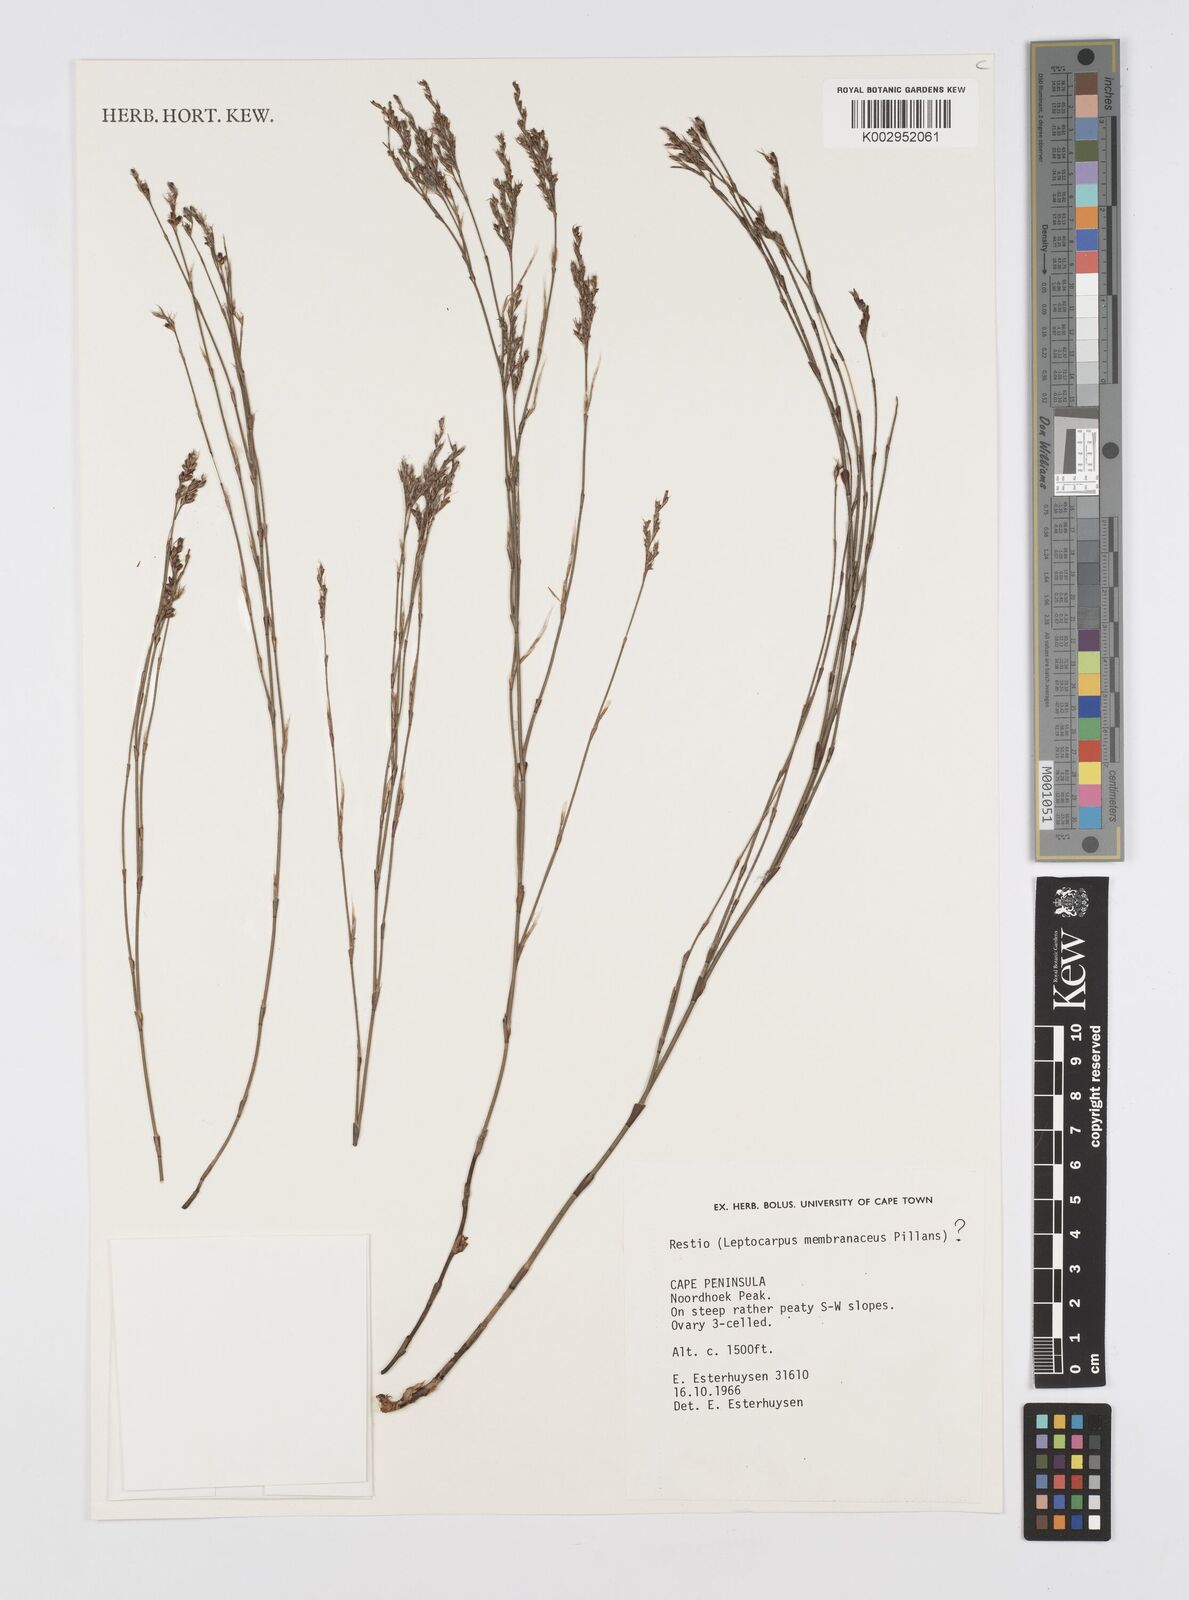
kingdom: Plantae
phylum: Tracheophyta
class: Liliopsida
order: Poales
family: Restionaceae
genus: Elegia
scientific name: Elegia intermedia
